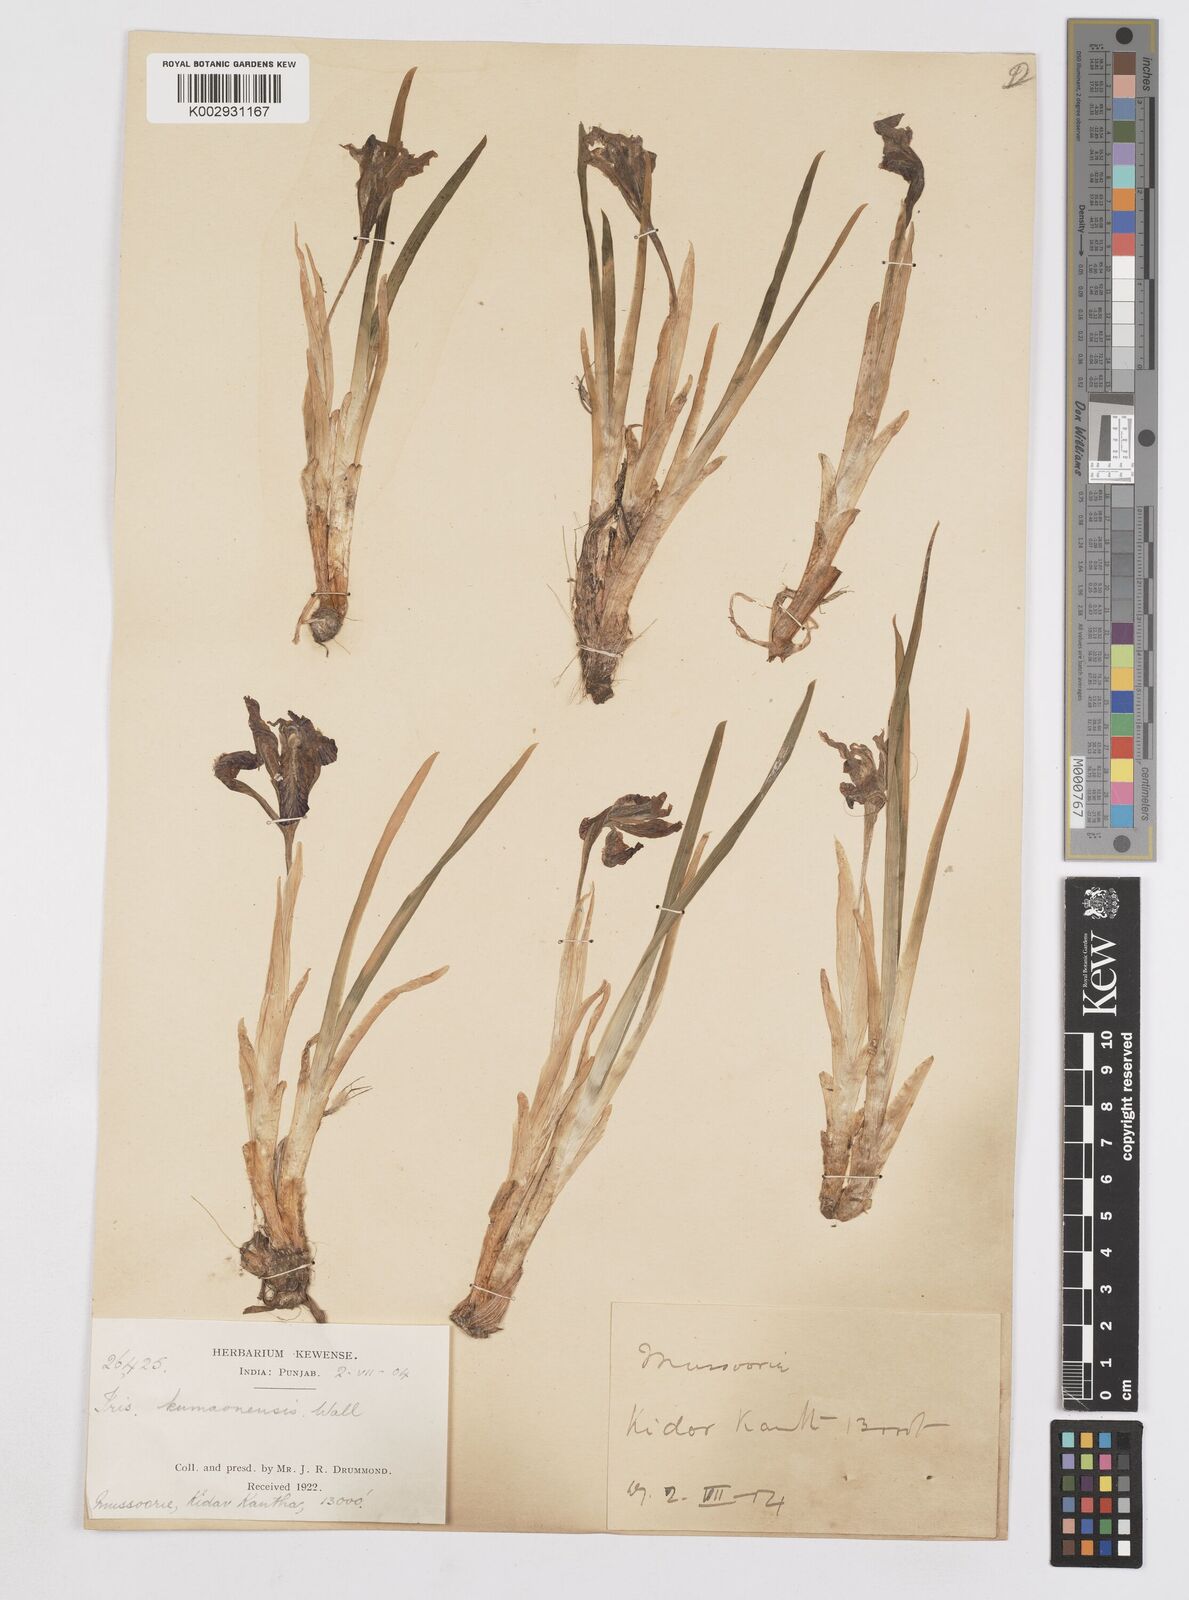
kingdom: Plantae
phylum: Tracheophyta
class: Liliopsida
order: Asparagales
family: Iridaceae
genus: Iris
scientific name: Iris kemaonensis
